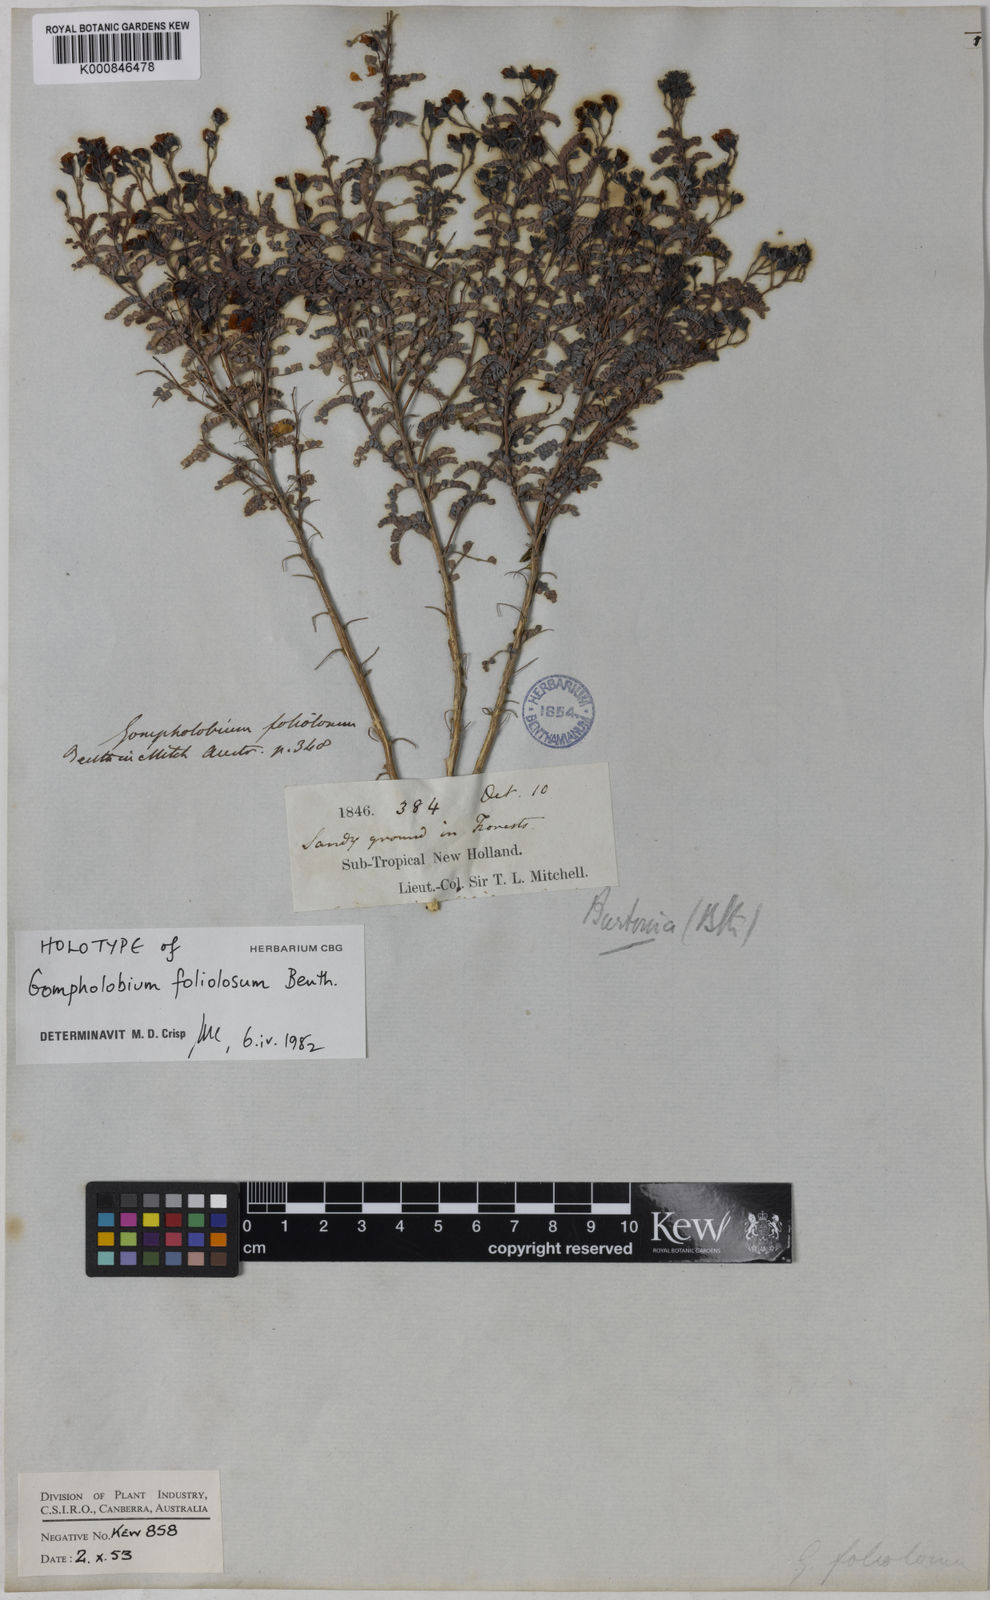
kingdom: Plantae
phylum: Tracheophyta
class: Magnoliopsida
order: Fabales
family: Fabaceae
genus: Gompholobium
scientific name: Gompholobium foliolosum
